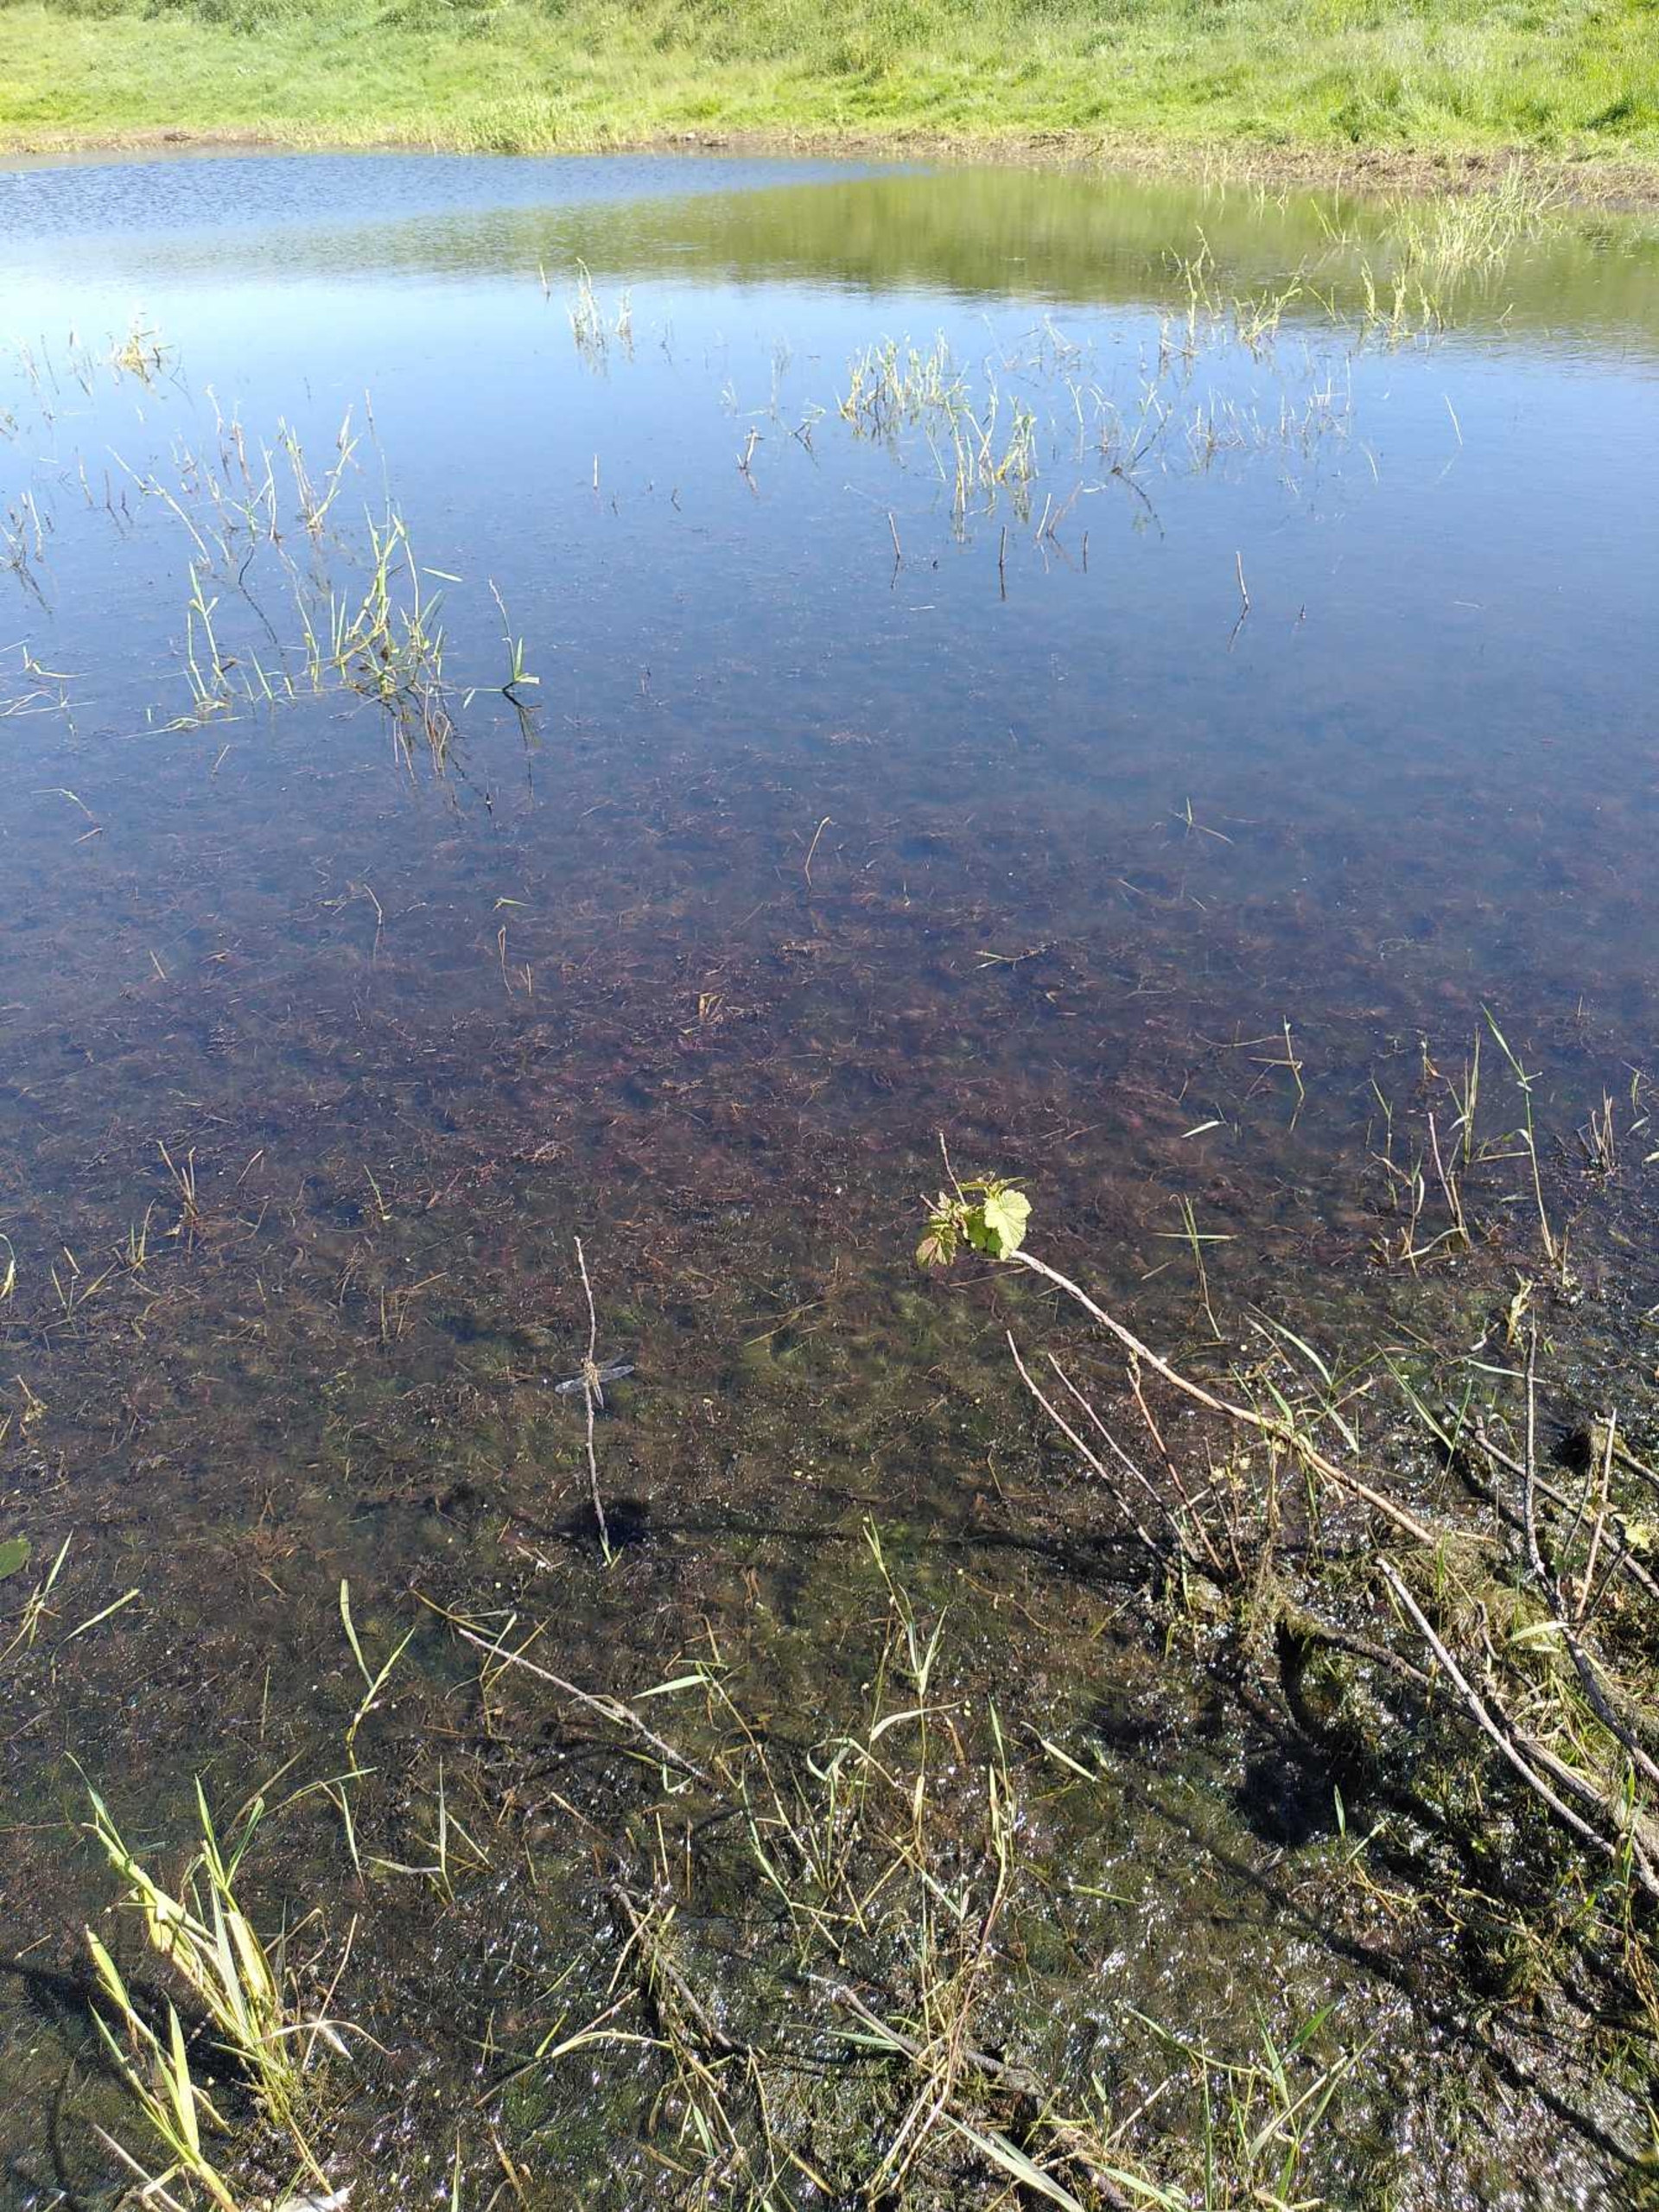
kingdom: Animalia
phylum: Arthropoda
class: Insecta
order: Odonata
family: Libellulidae
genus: Libellula
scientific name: Libellula quadrimaculata
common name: Fireplettet libel
